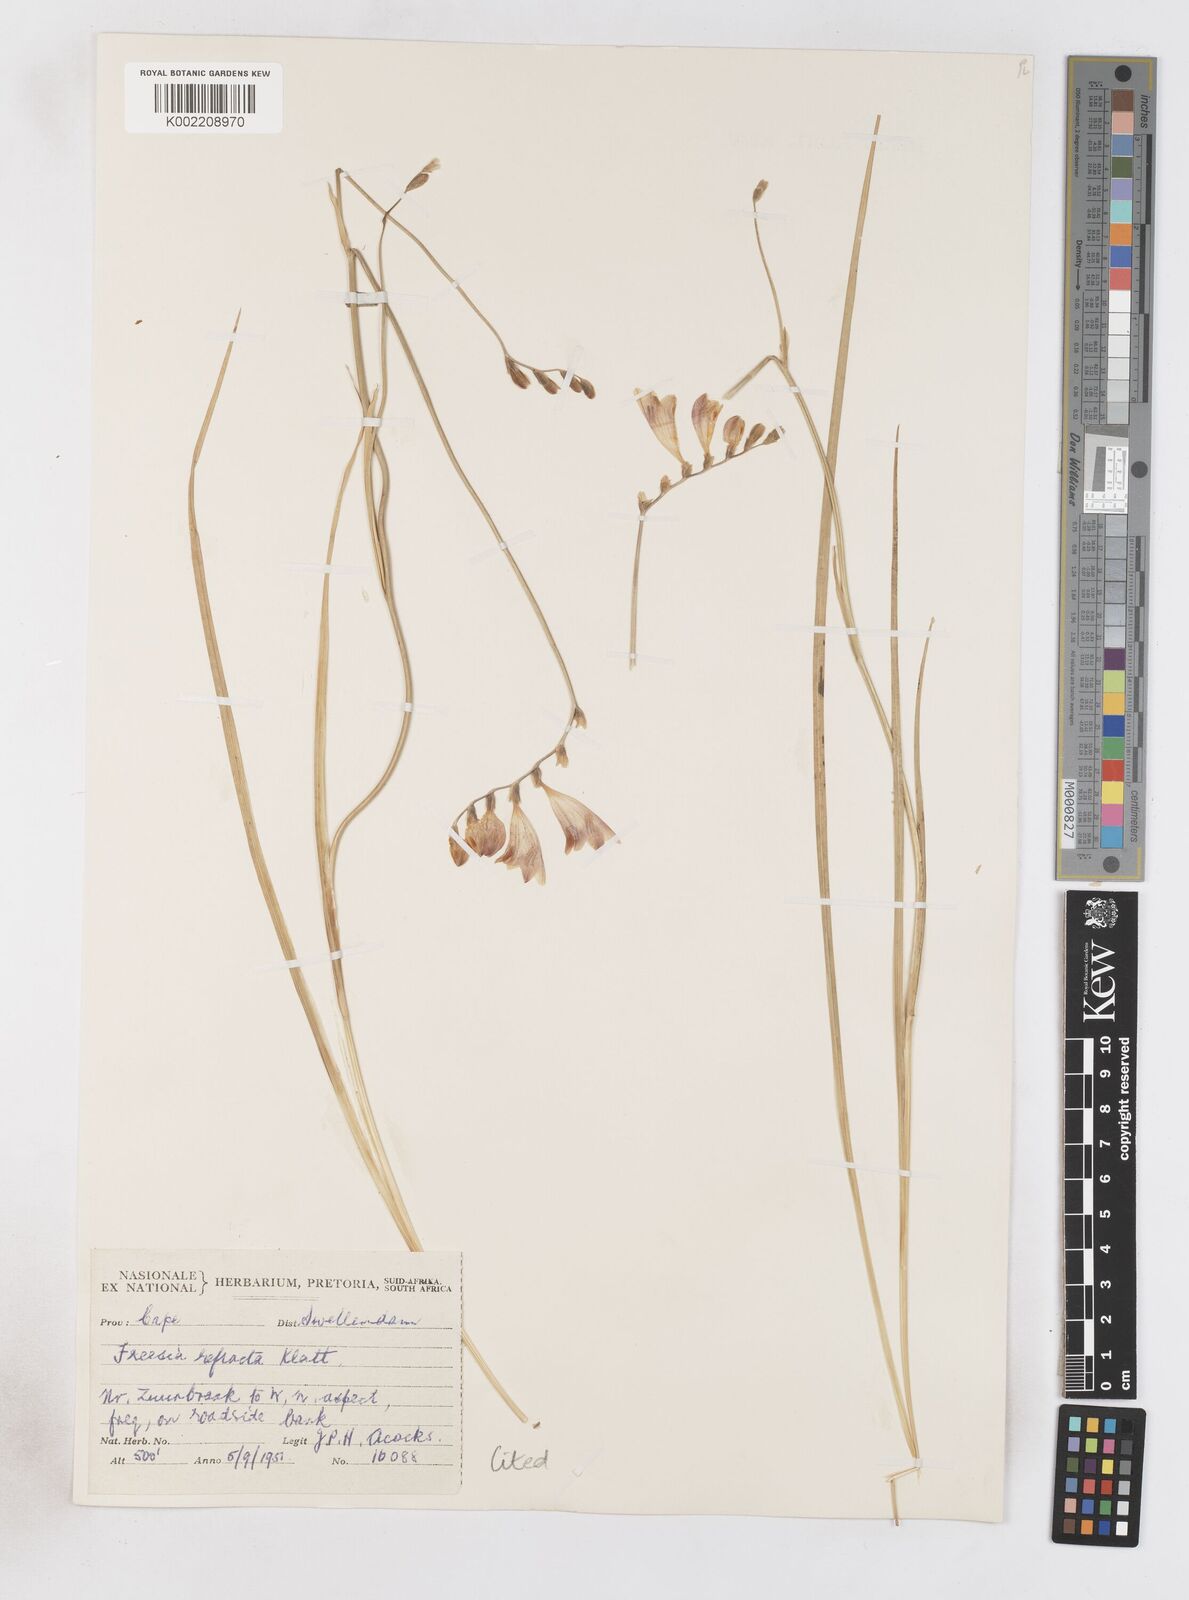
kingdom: Plantae
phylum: Tracheophyta
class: Liliopsida
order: Asparagales
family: Iridaceae
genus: Freesia
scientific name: Freesia refracta
